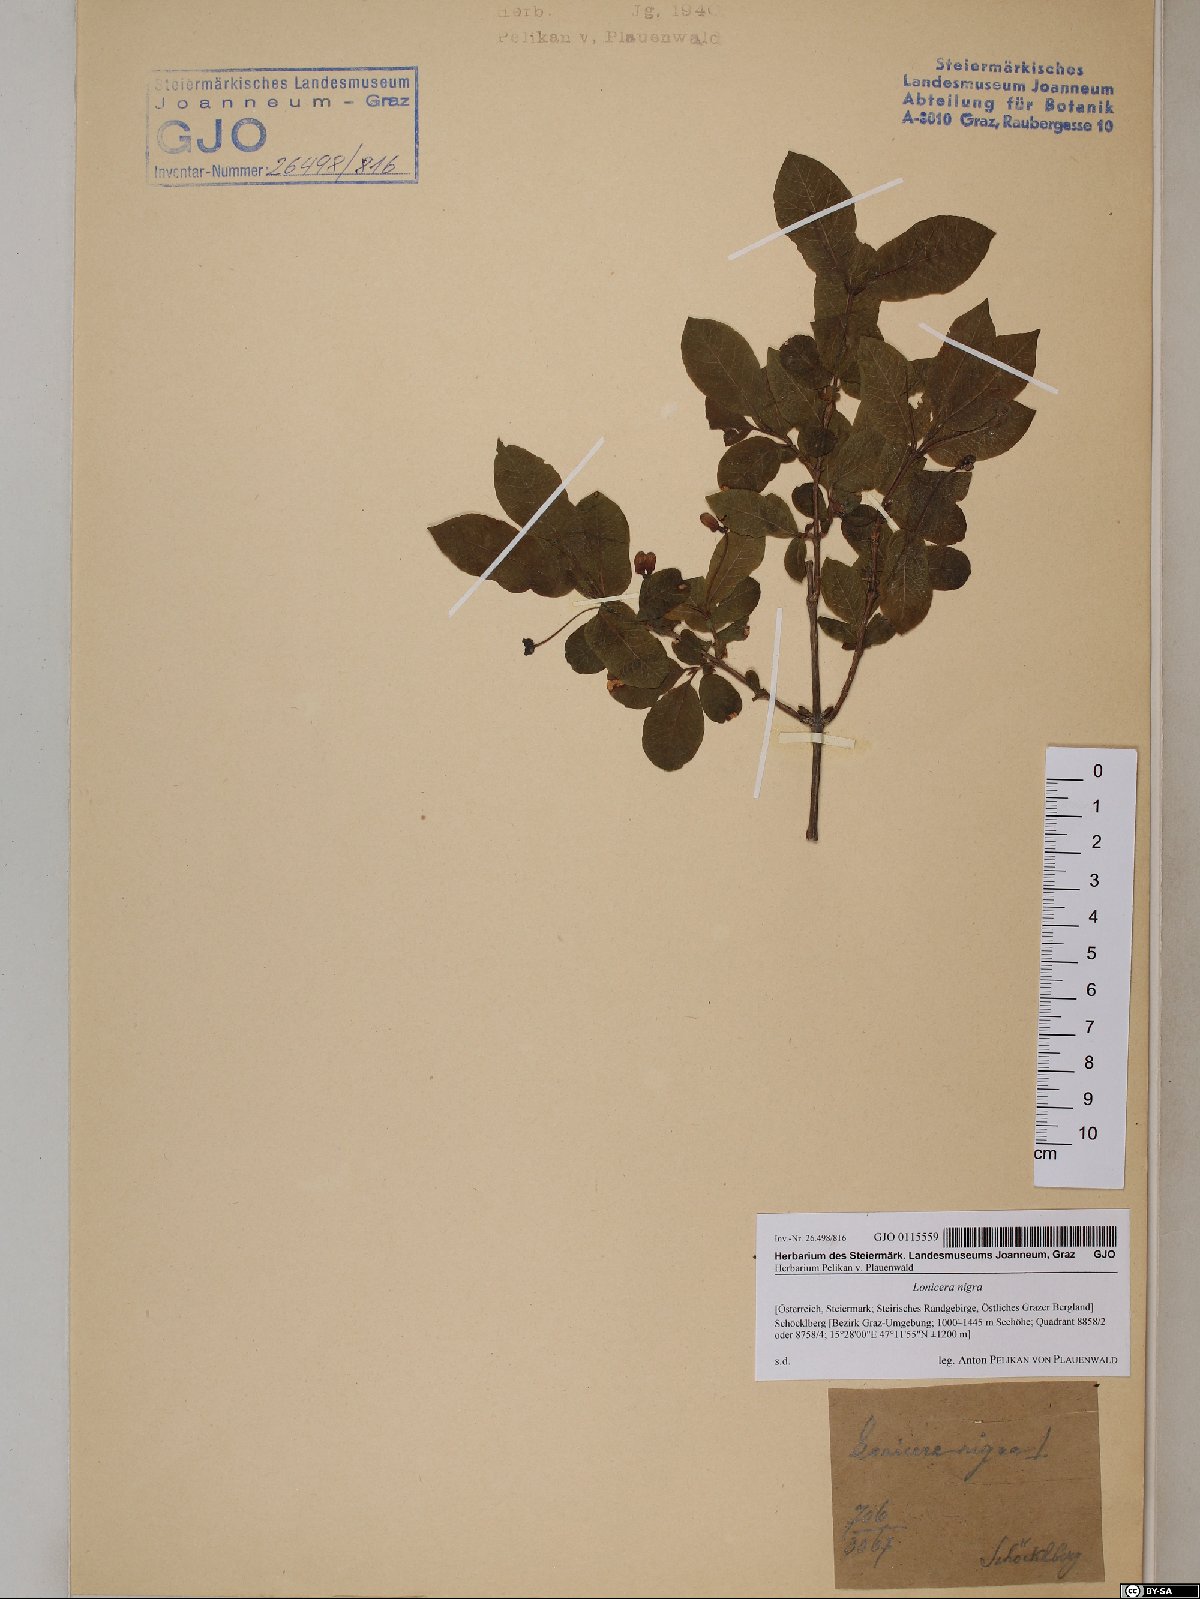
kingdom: Plantae
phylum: Tracheophyta
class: Magnoliopsida
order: Dipsacales
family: Caprifoliaceae
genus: Lonicera
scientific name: Lonicera nigra
